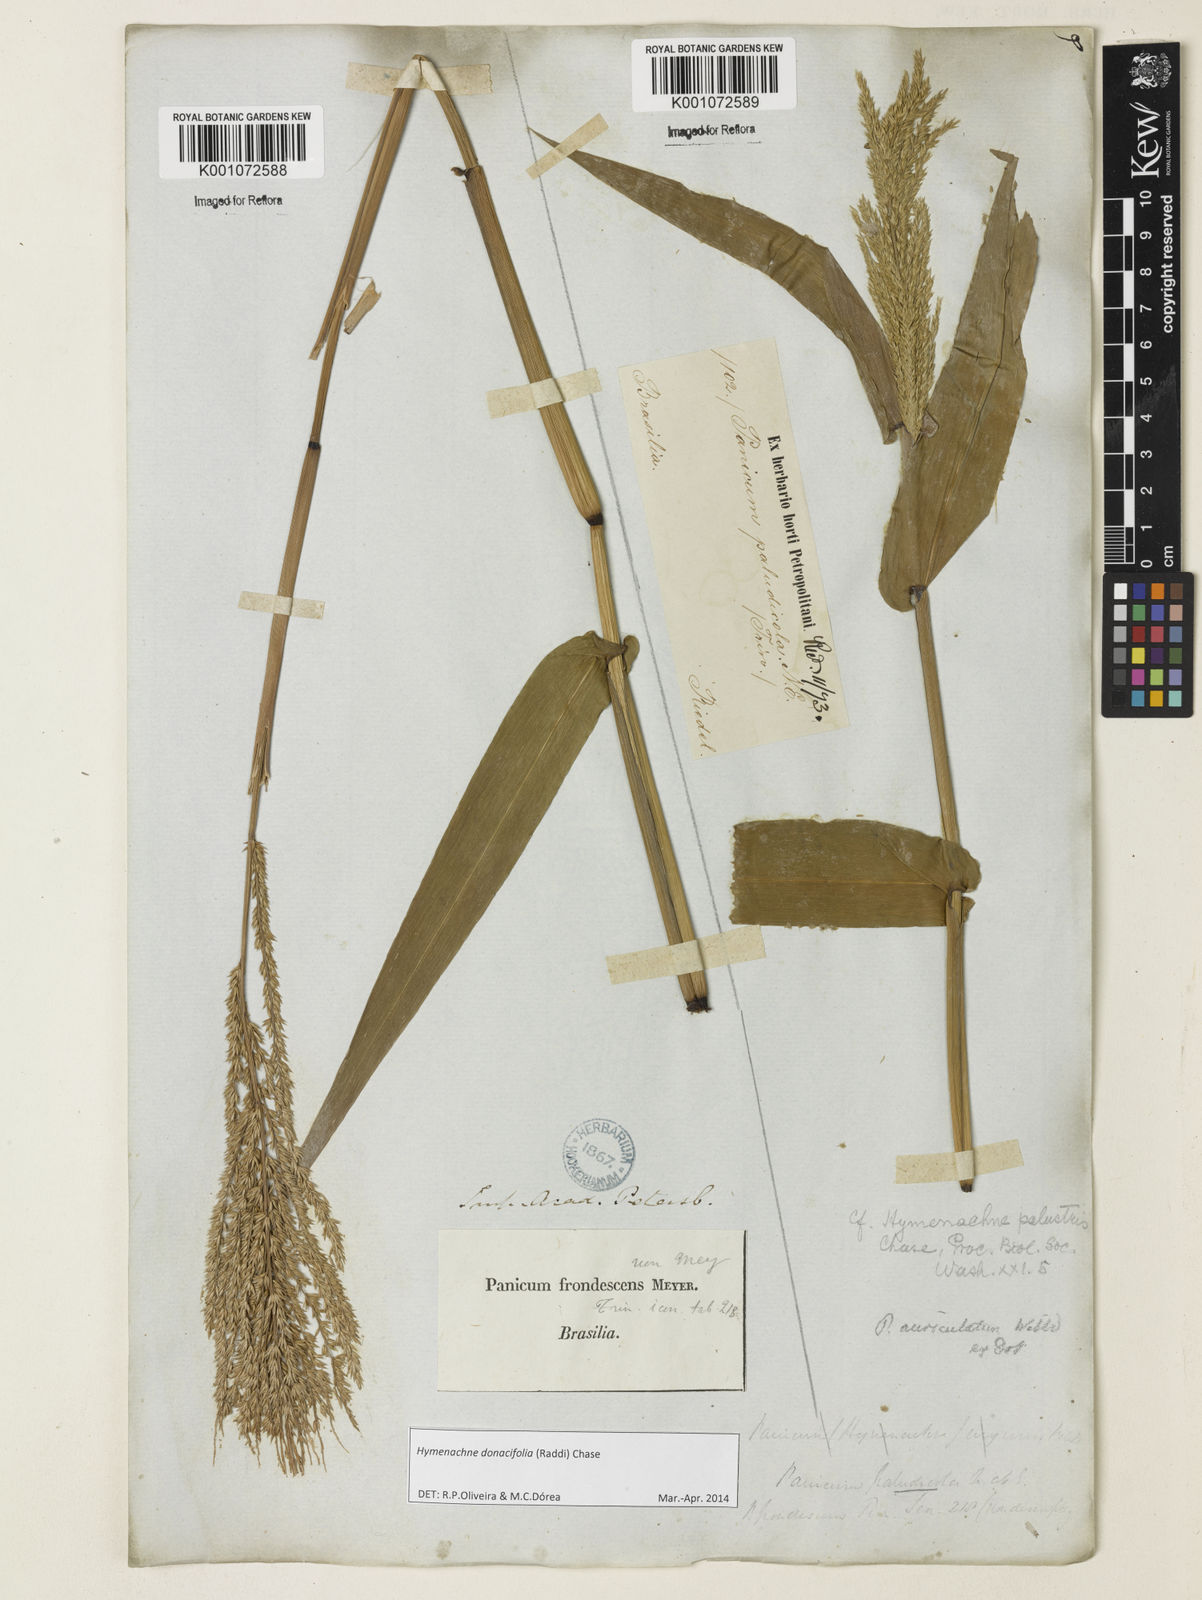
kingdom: Plantae
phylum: Tracheophyta
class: Liliopsida
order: Poales
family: Poaceae
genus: Hymenachne
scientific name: Hymenachne donacifolia
